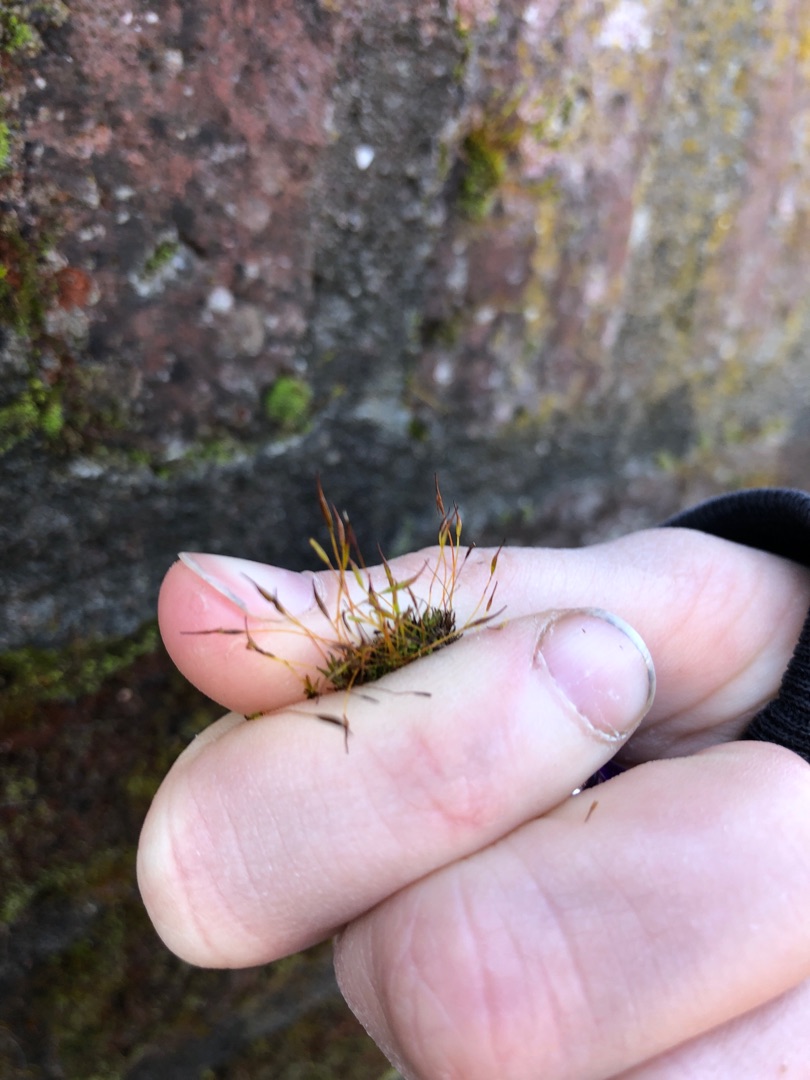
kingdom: Plantae
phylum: Bryophyta
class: Bryopsida
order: Pottiales
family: Pottiaceae
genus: Tortula
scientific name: Tortula muralis
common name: Mur-snotand
